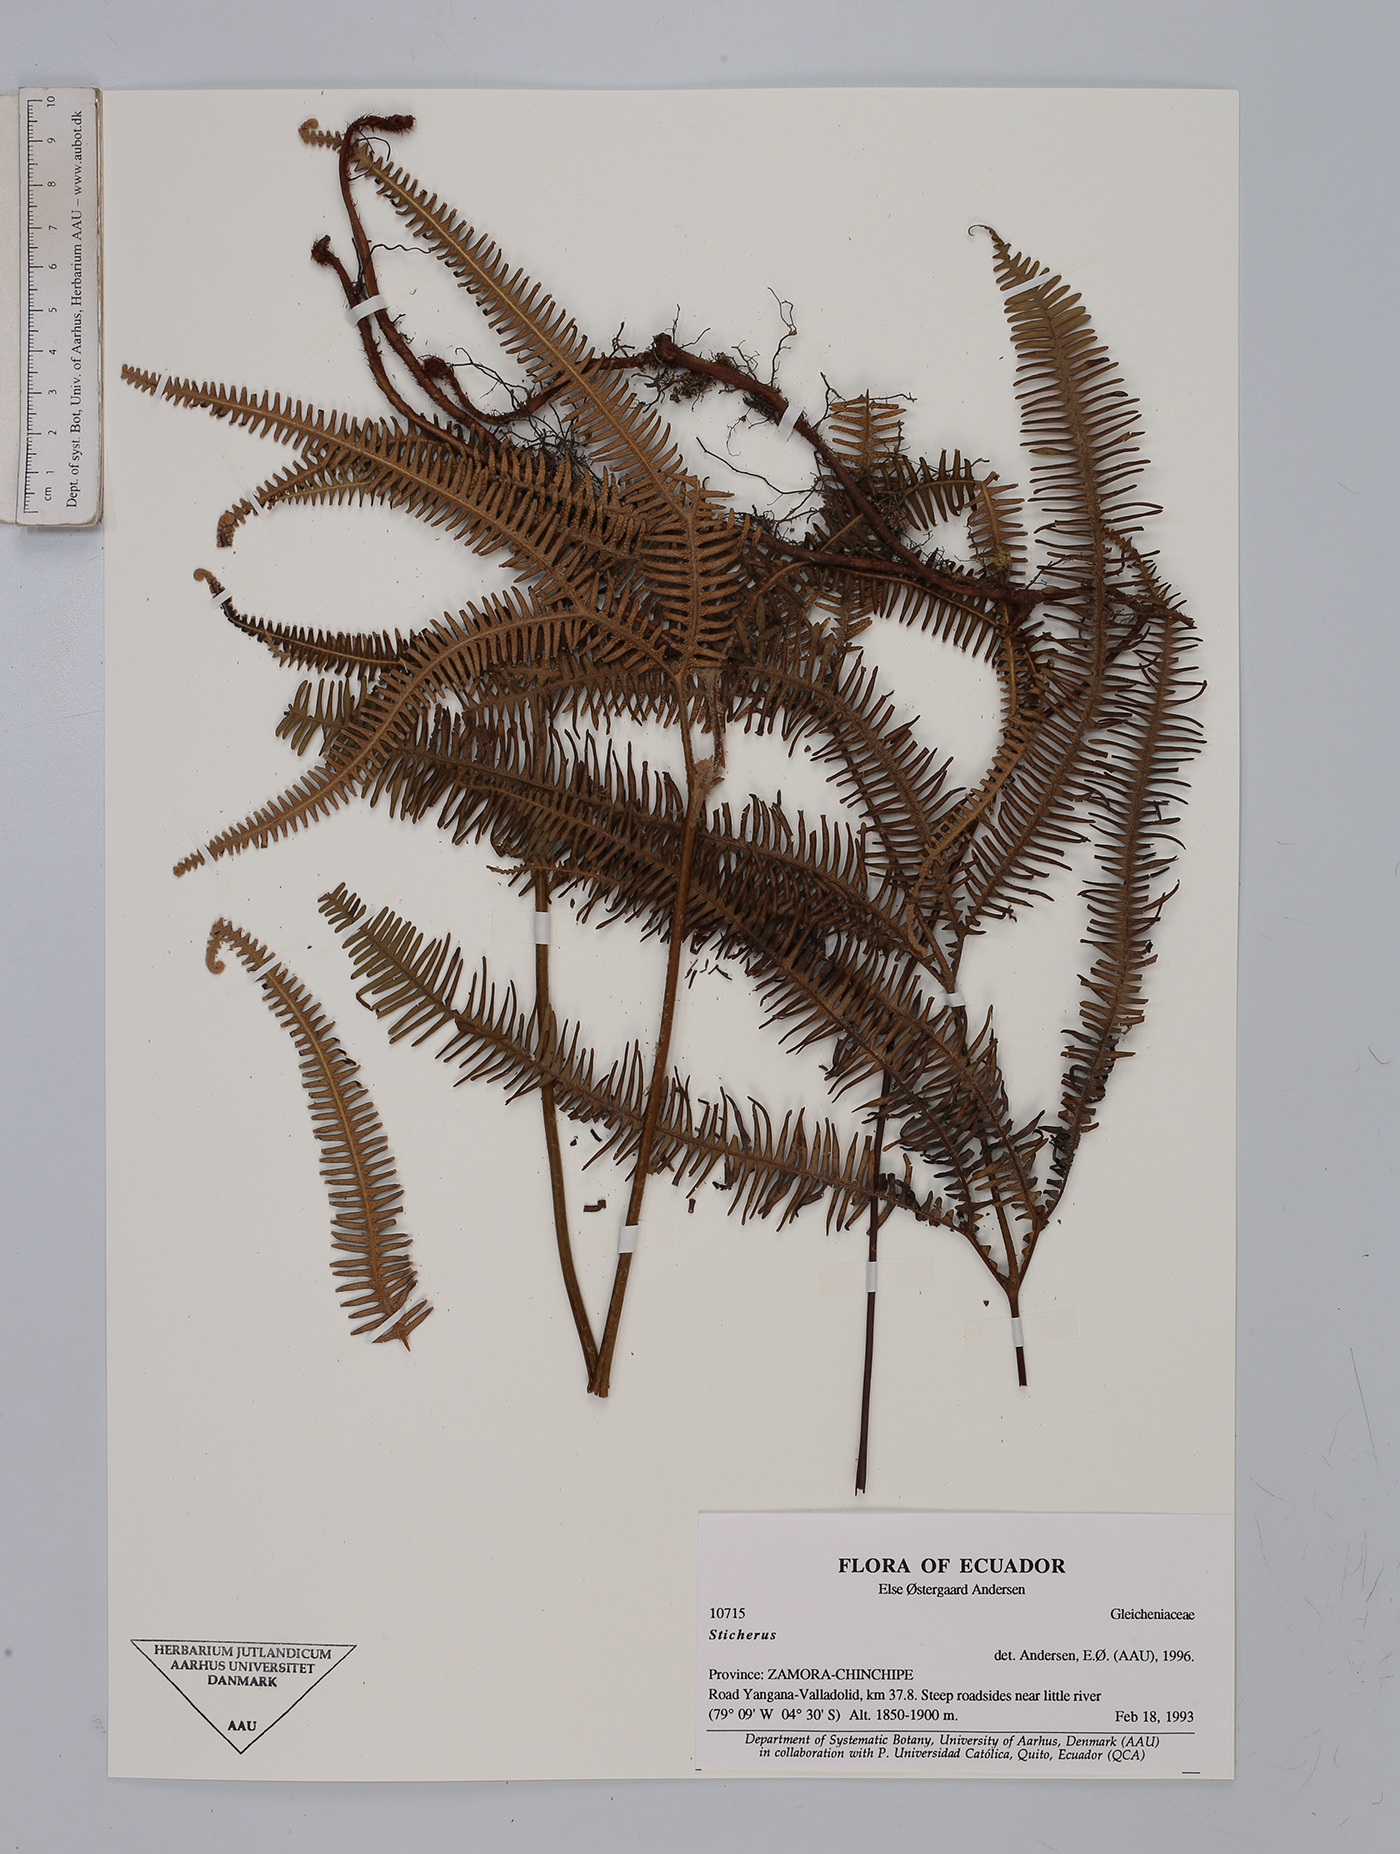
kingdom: Plantae
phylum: Tracheophyta
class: Polypodiopsida
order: Gleicheniales
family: Gleicheniaceae
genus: Sticherus
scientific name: Sticherus
